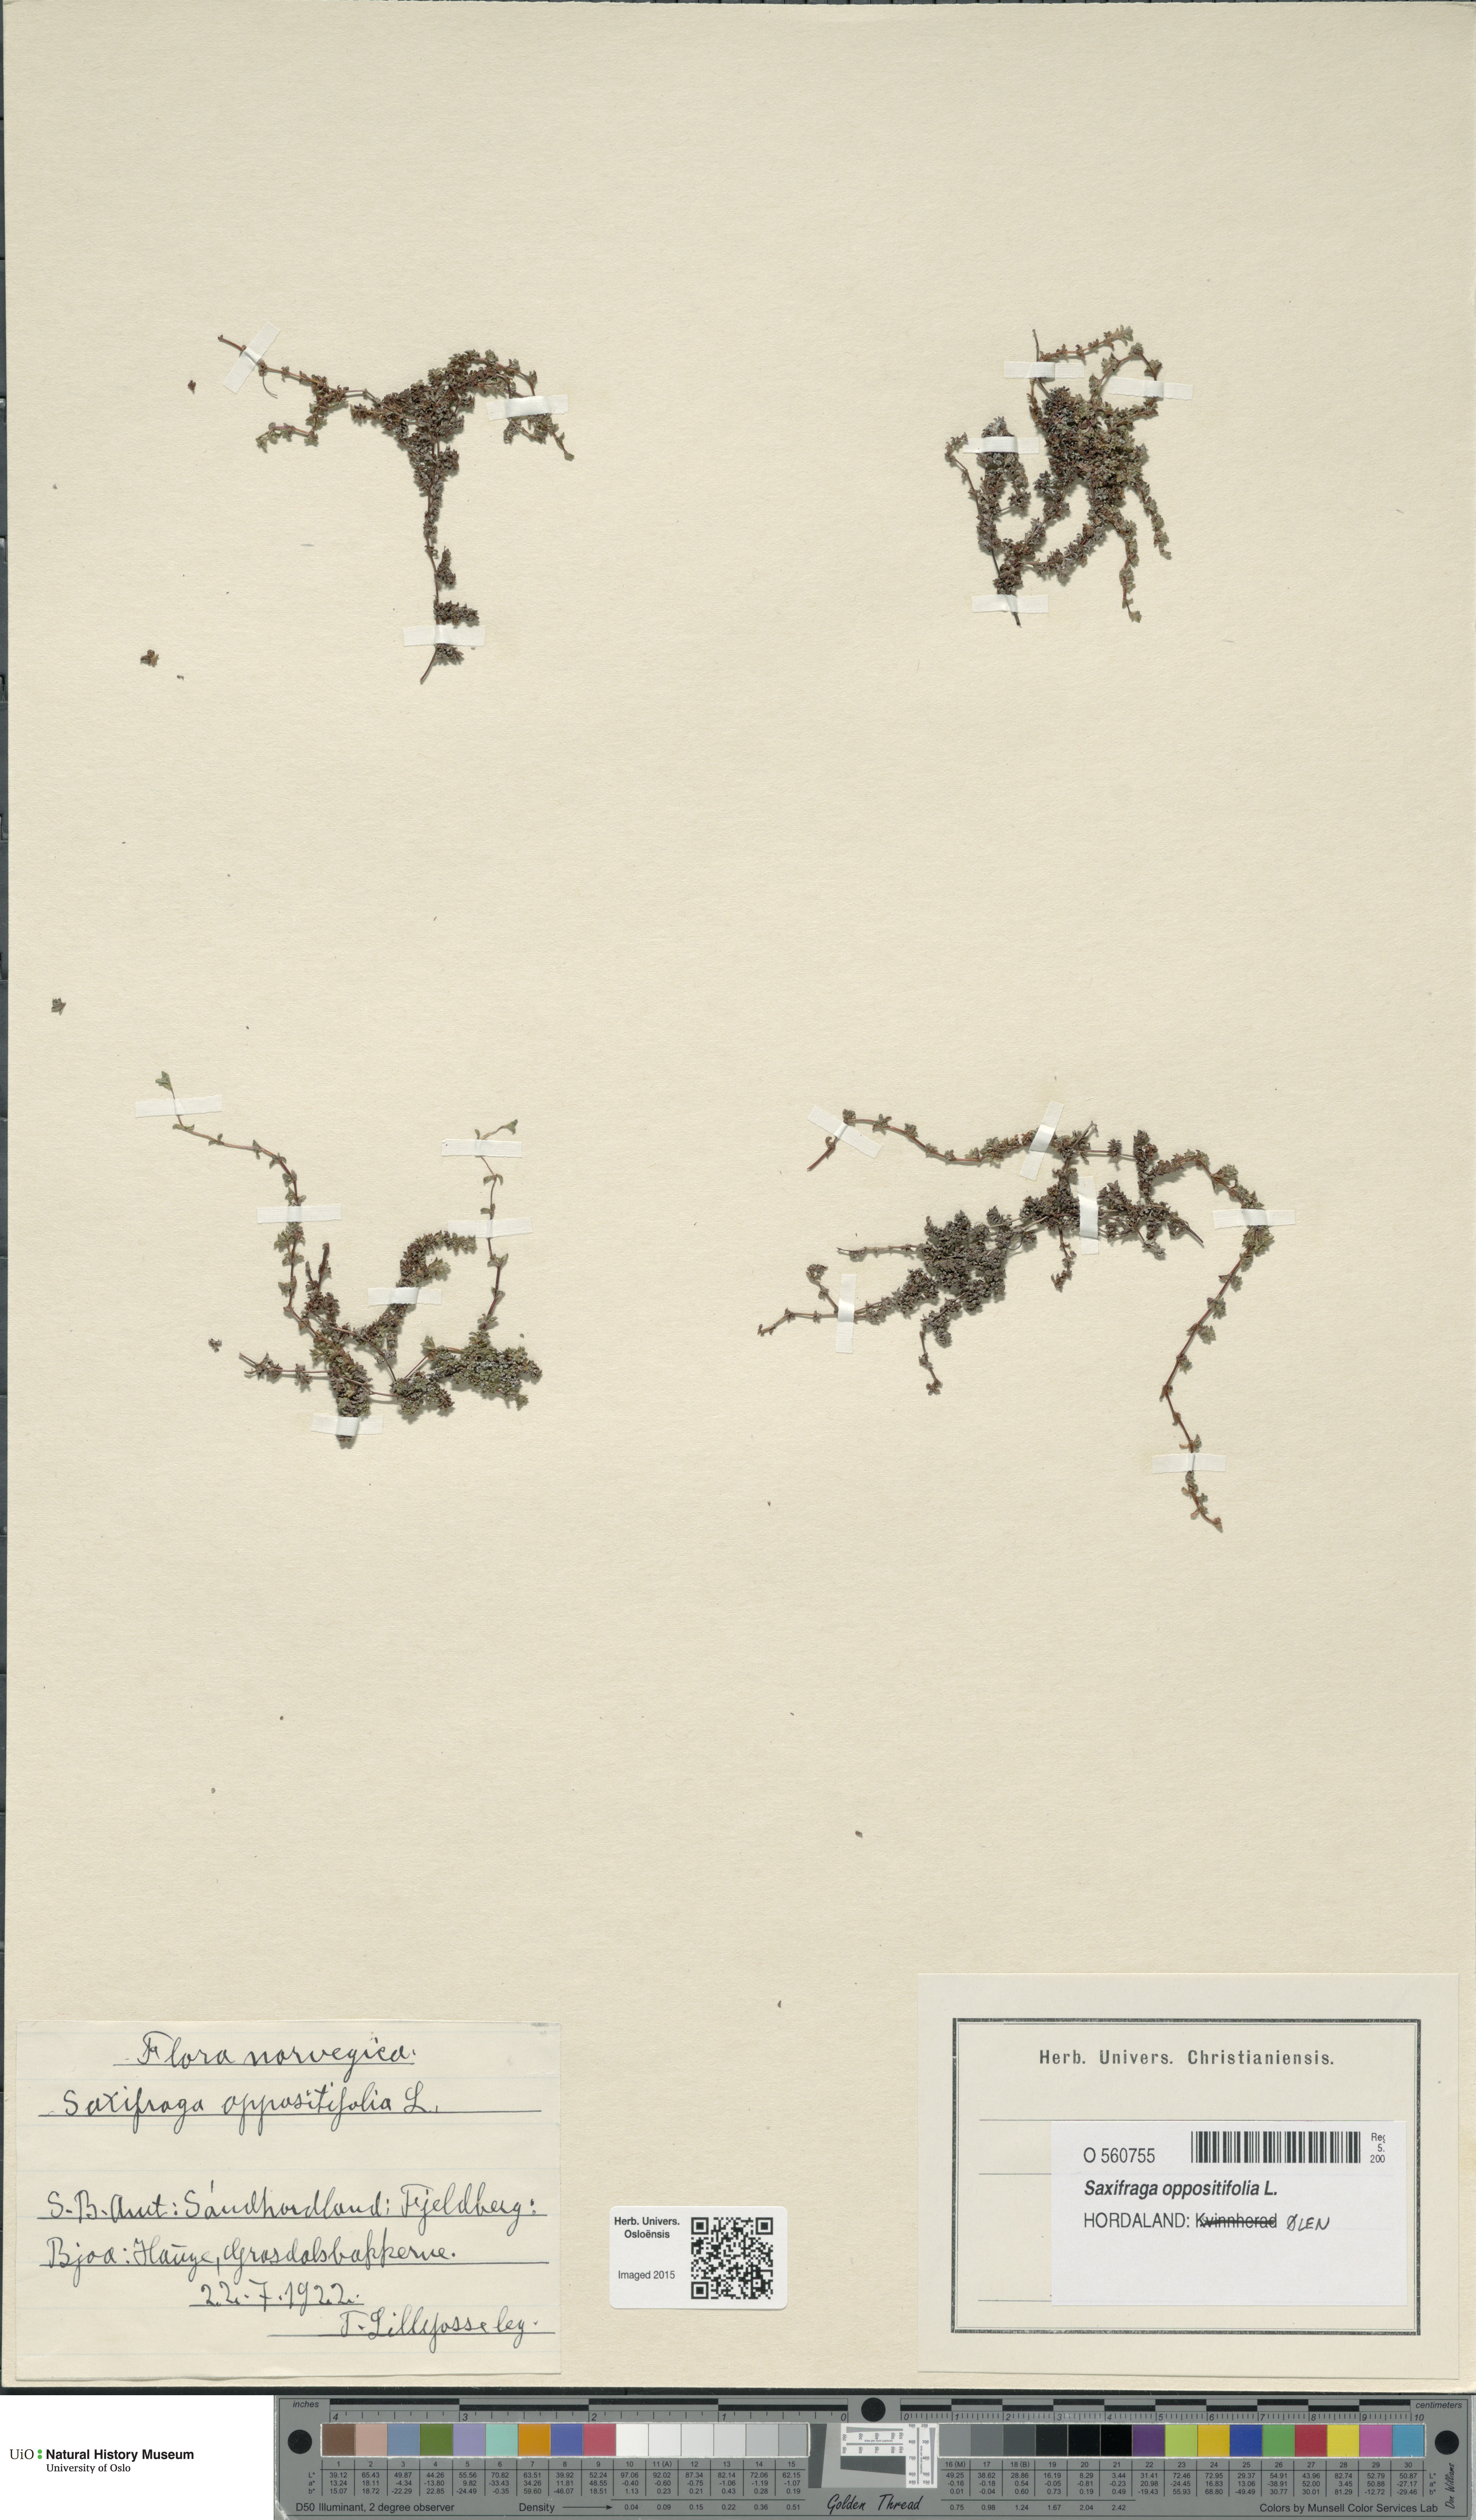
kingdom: Plantae
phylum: Tracheophyta
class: Magnoliopsida
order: Saxifragales
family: Saxifragaceae
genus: Saxifraga
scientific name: Saxifraga oppositifolia
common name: Purple saxifrage
